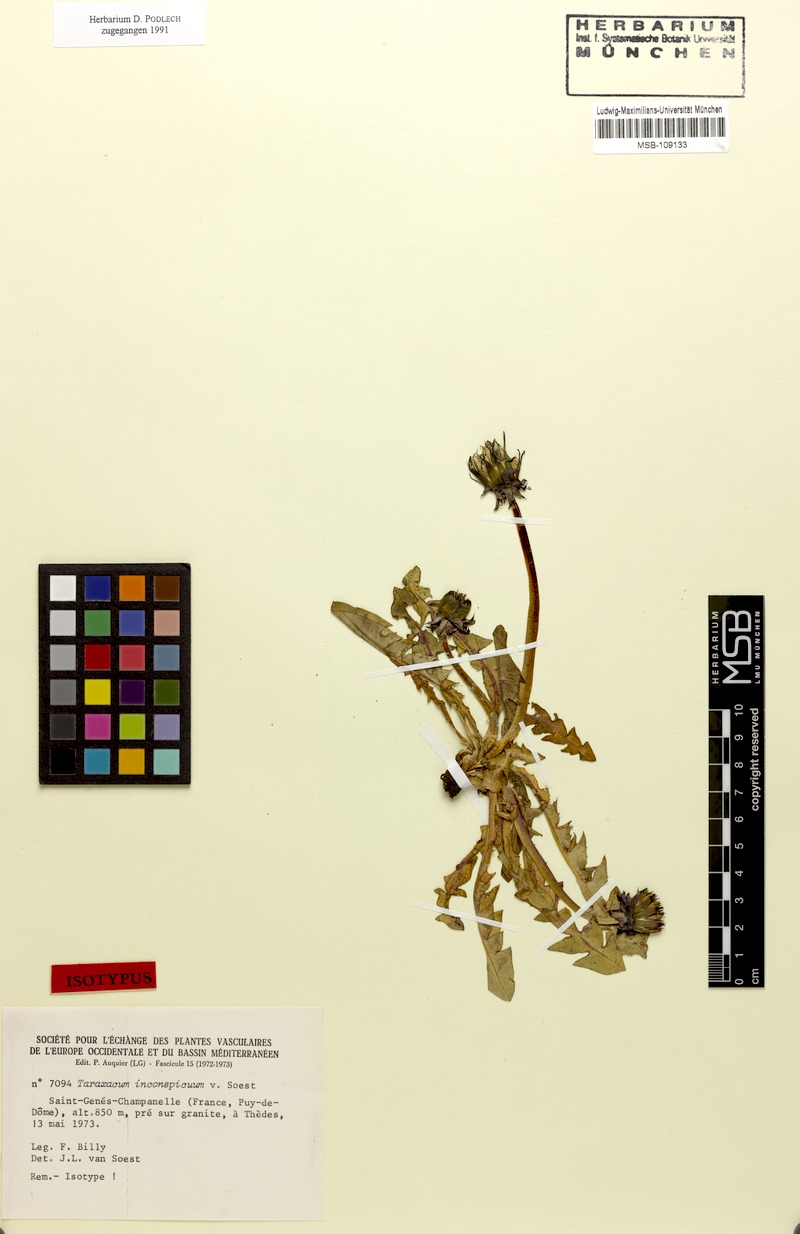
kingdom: Plantae
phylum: Tracheophyta
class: Magnoliopsida
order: Asterales
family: Asteraceae
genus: Taraxacum
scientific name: Taraxacum inconspicuum
